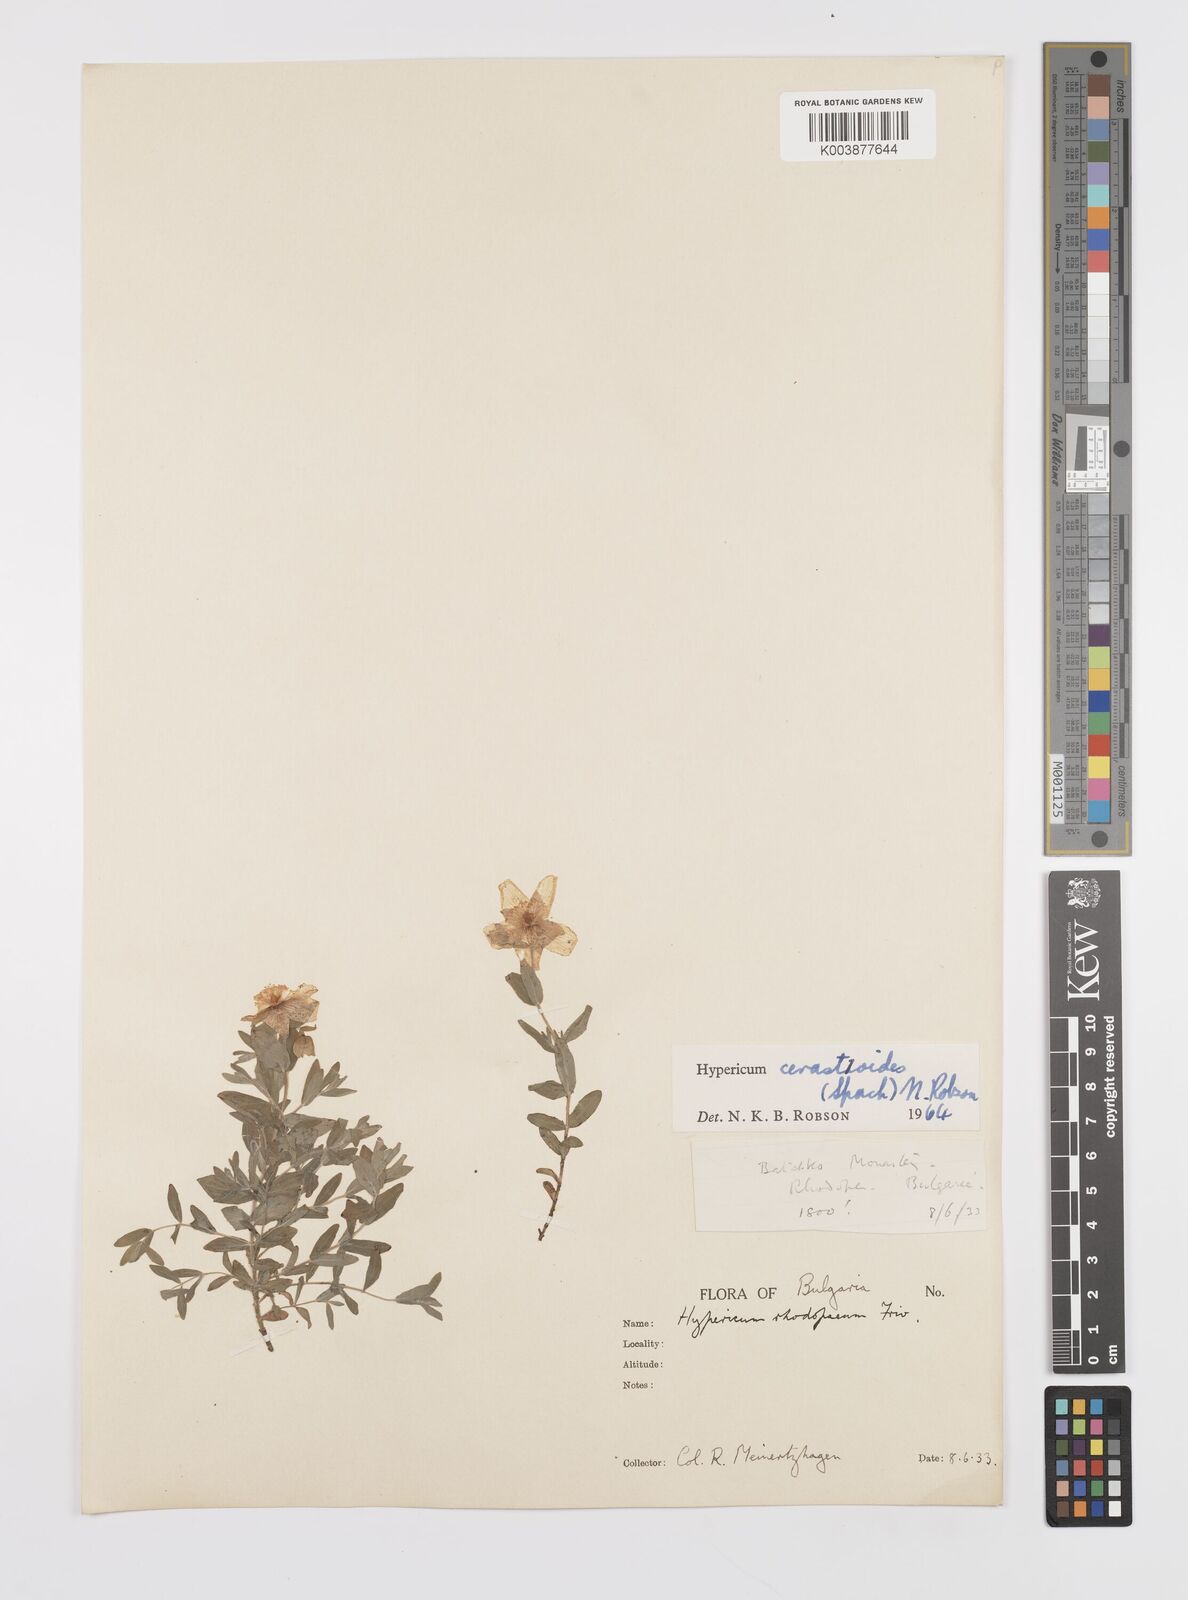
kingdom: Plantae
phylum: Tracheophyta
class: Magnoliopsida
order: Malpighiales
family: Hypericaceae
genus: Hypericum
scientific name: Hypericum cerastoides
